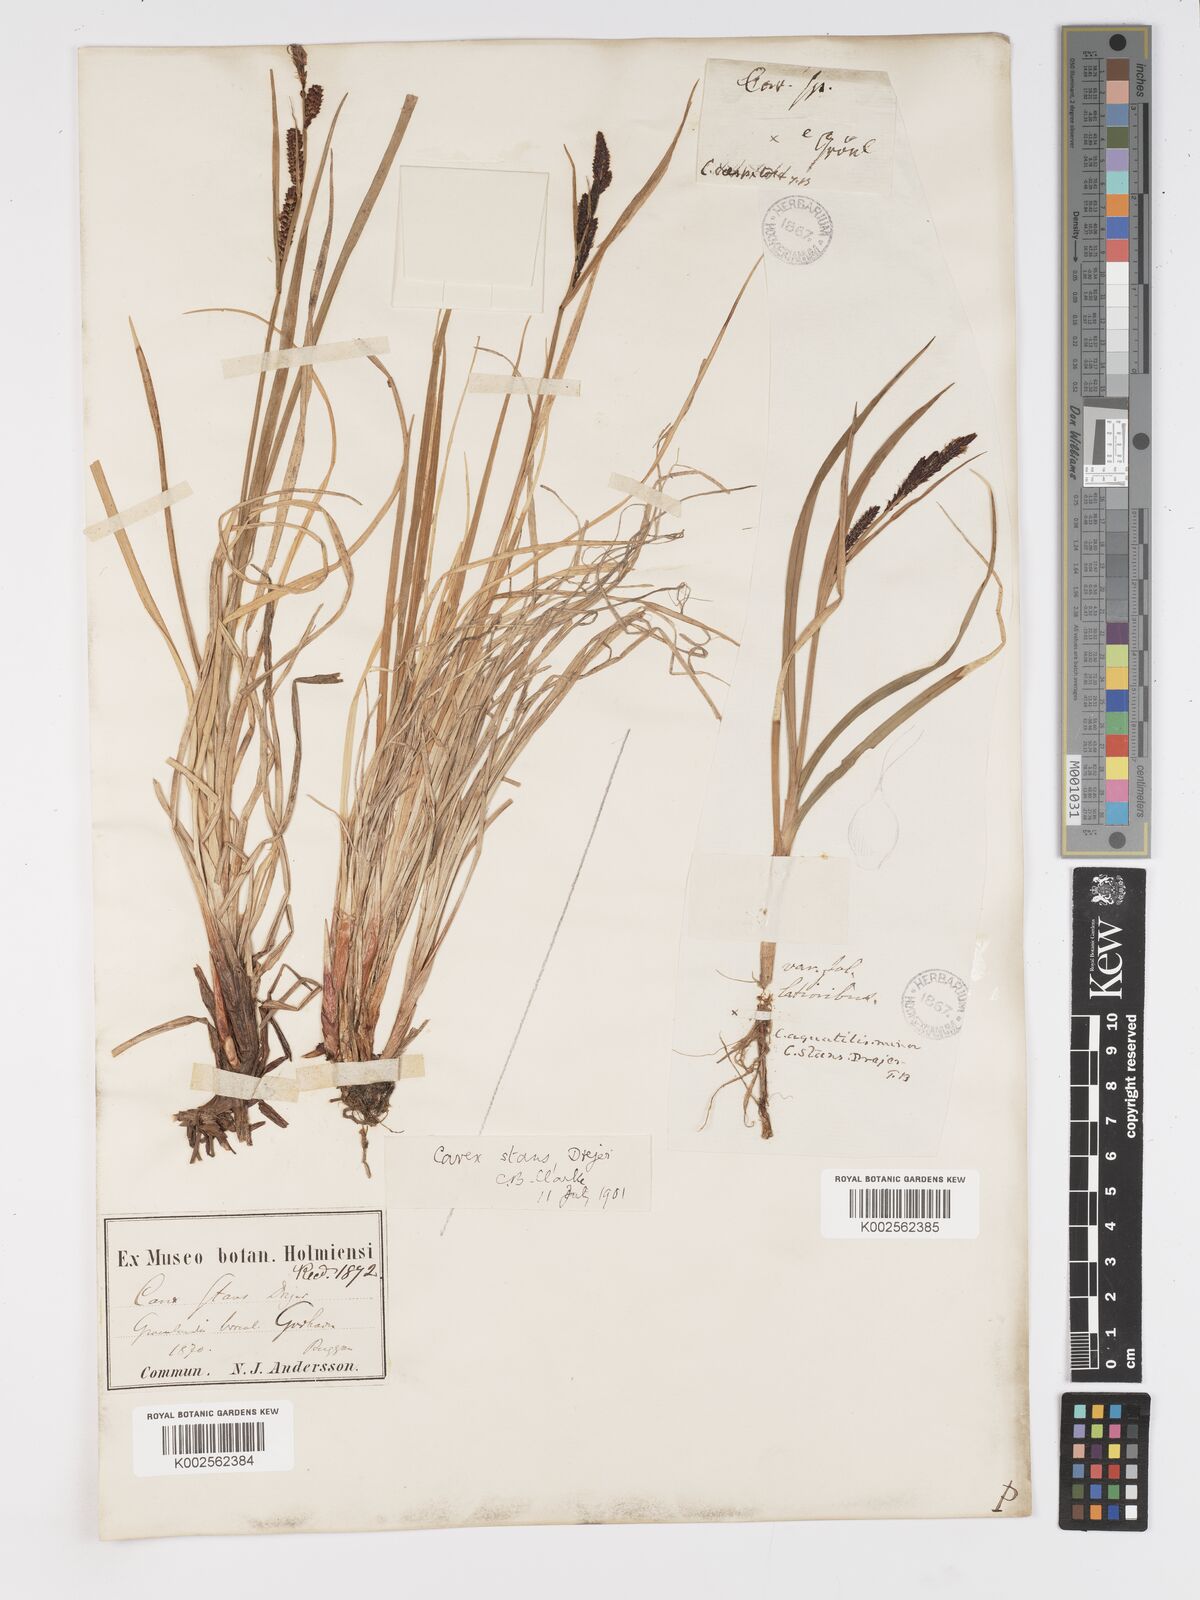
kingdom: Plantae
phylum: Tracheophyta
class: Liliopsida
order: Poales
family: Cyperaceae
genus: Carex
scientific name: Carex aquatilis
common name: Water sedge
